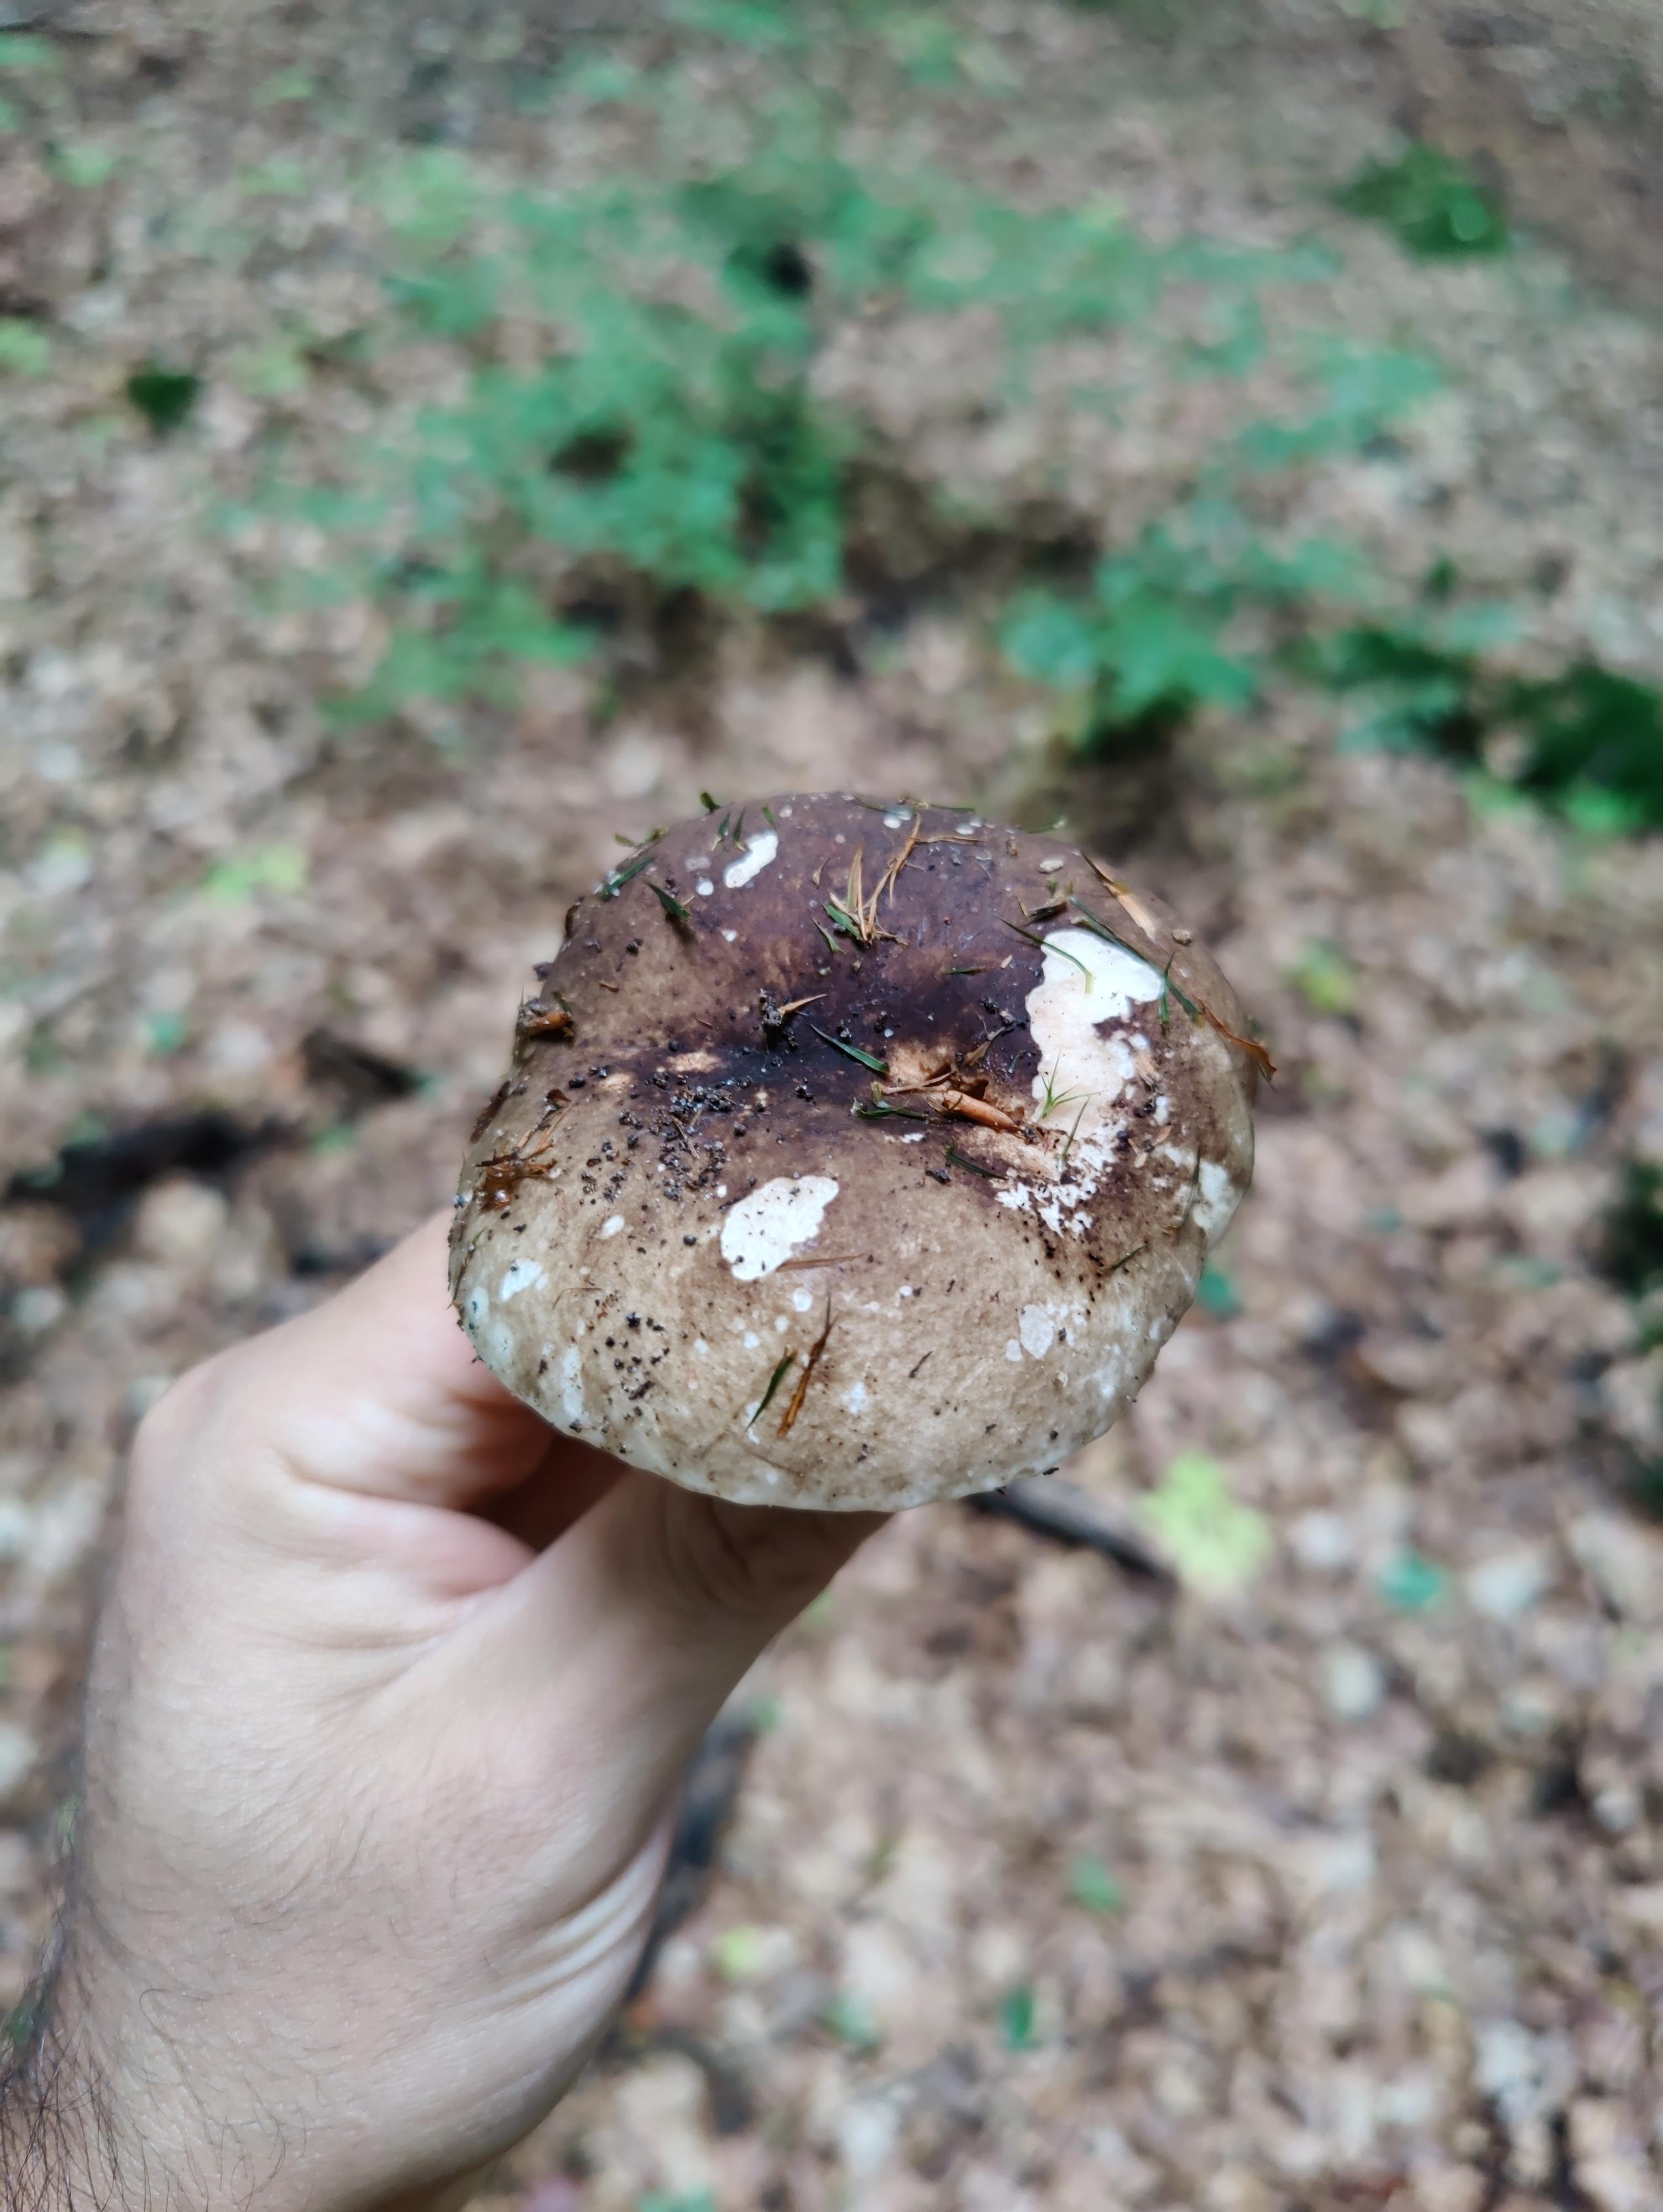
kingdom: Fungi
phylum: Basidiomycota
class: Agaricomycetes
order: Russulales
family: Russulaceae
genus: Russula
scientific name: Russula adusta
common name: sværtende skørhat
